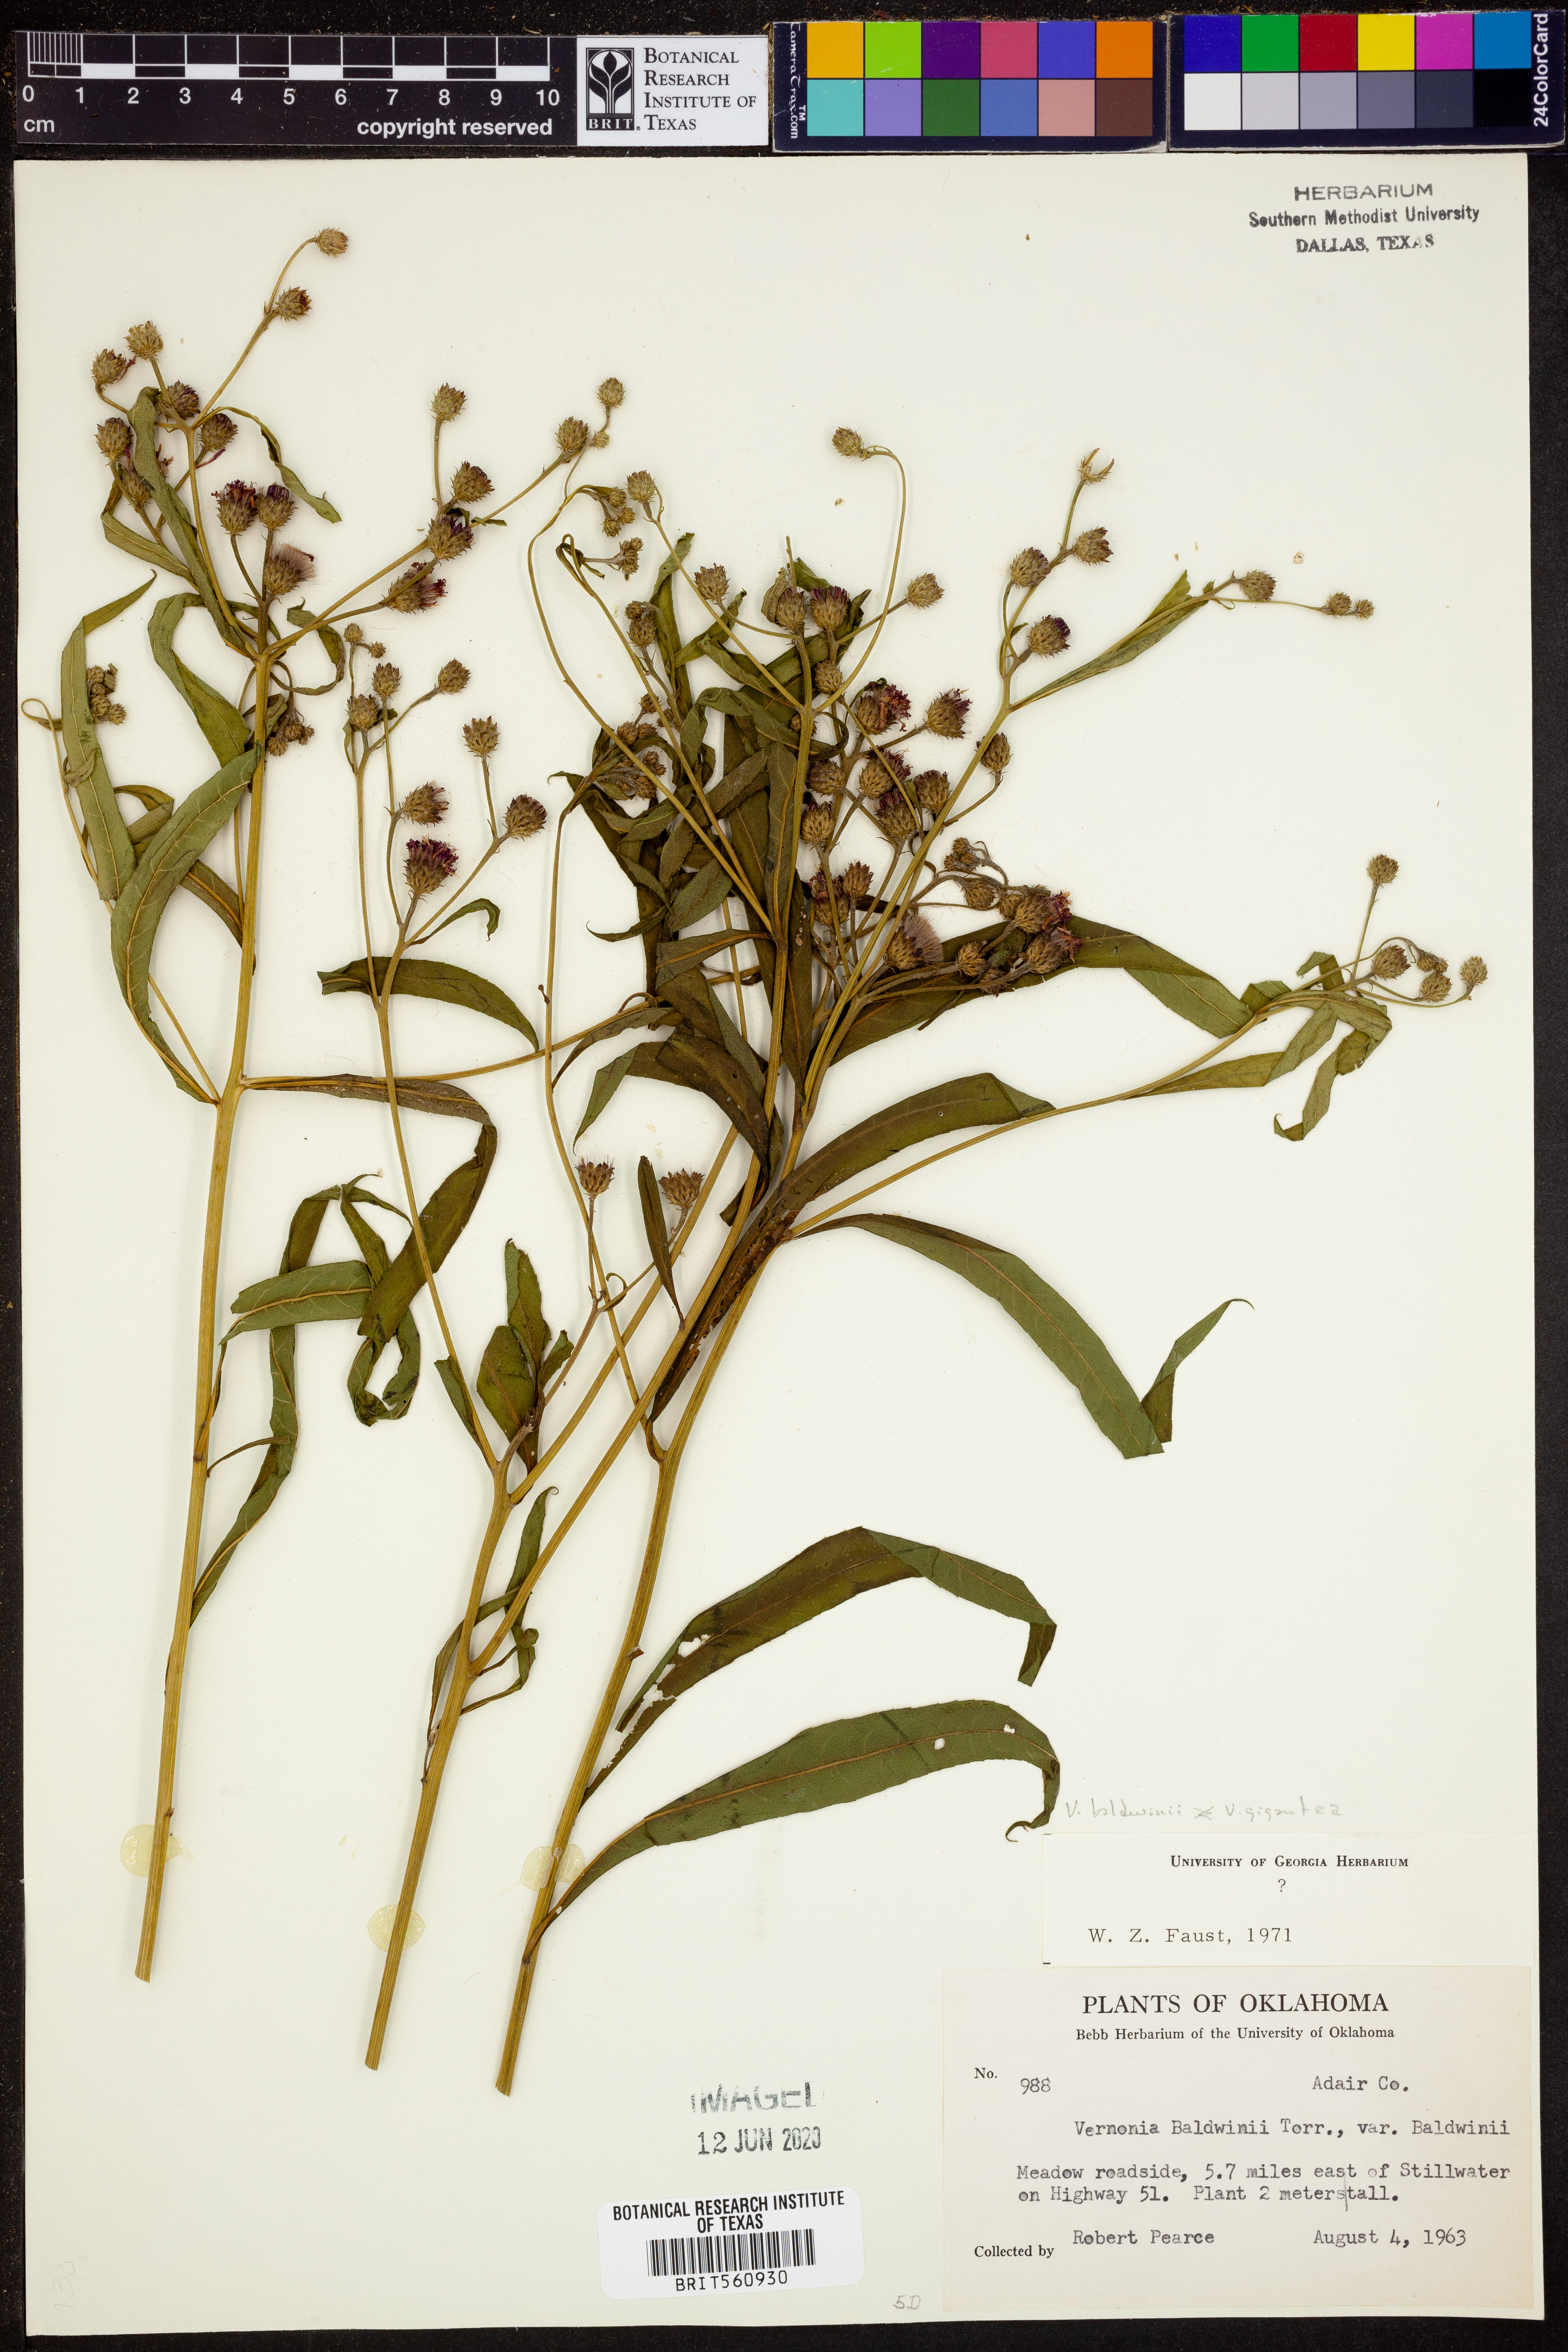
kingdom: Plantae
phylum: Tracheophyta
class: Magnoliopsida
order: Asterales
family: Asteraceae
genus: Vernonia
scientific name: Vernonia baldwinii
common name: Western ironweed
